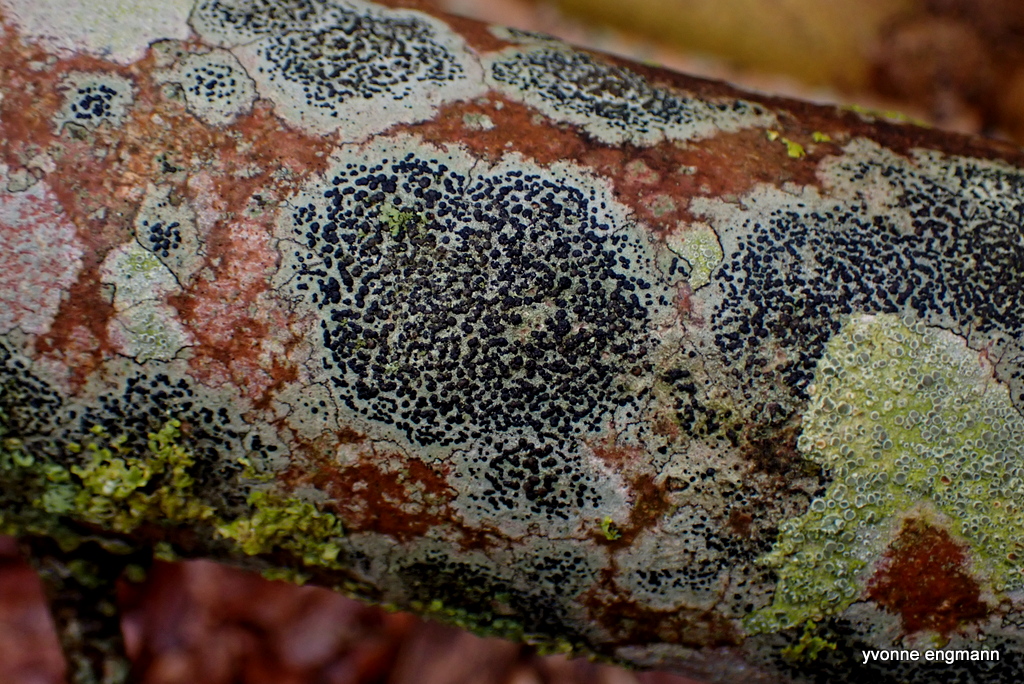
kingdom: Fungi
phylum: Ascomycota
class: Lecanoromycetes
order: Lecanorales
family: Lecanoraceae
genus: Lecidella
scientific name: Lecidella elaeochroma
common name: grågrøn skivelav
